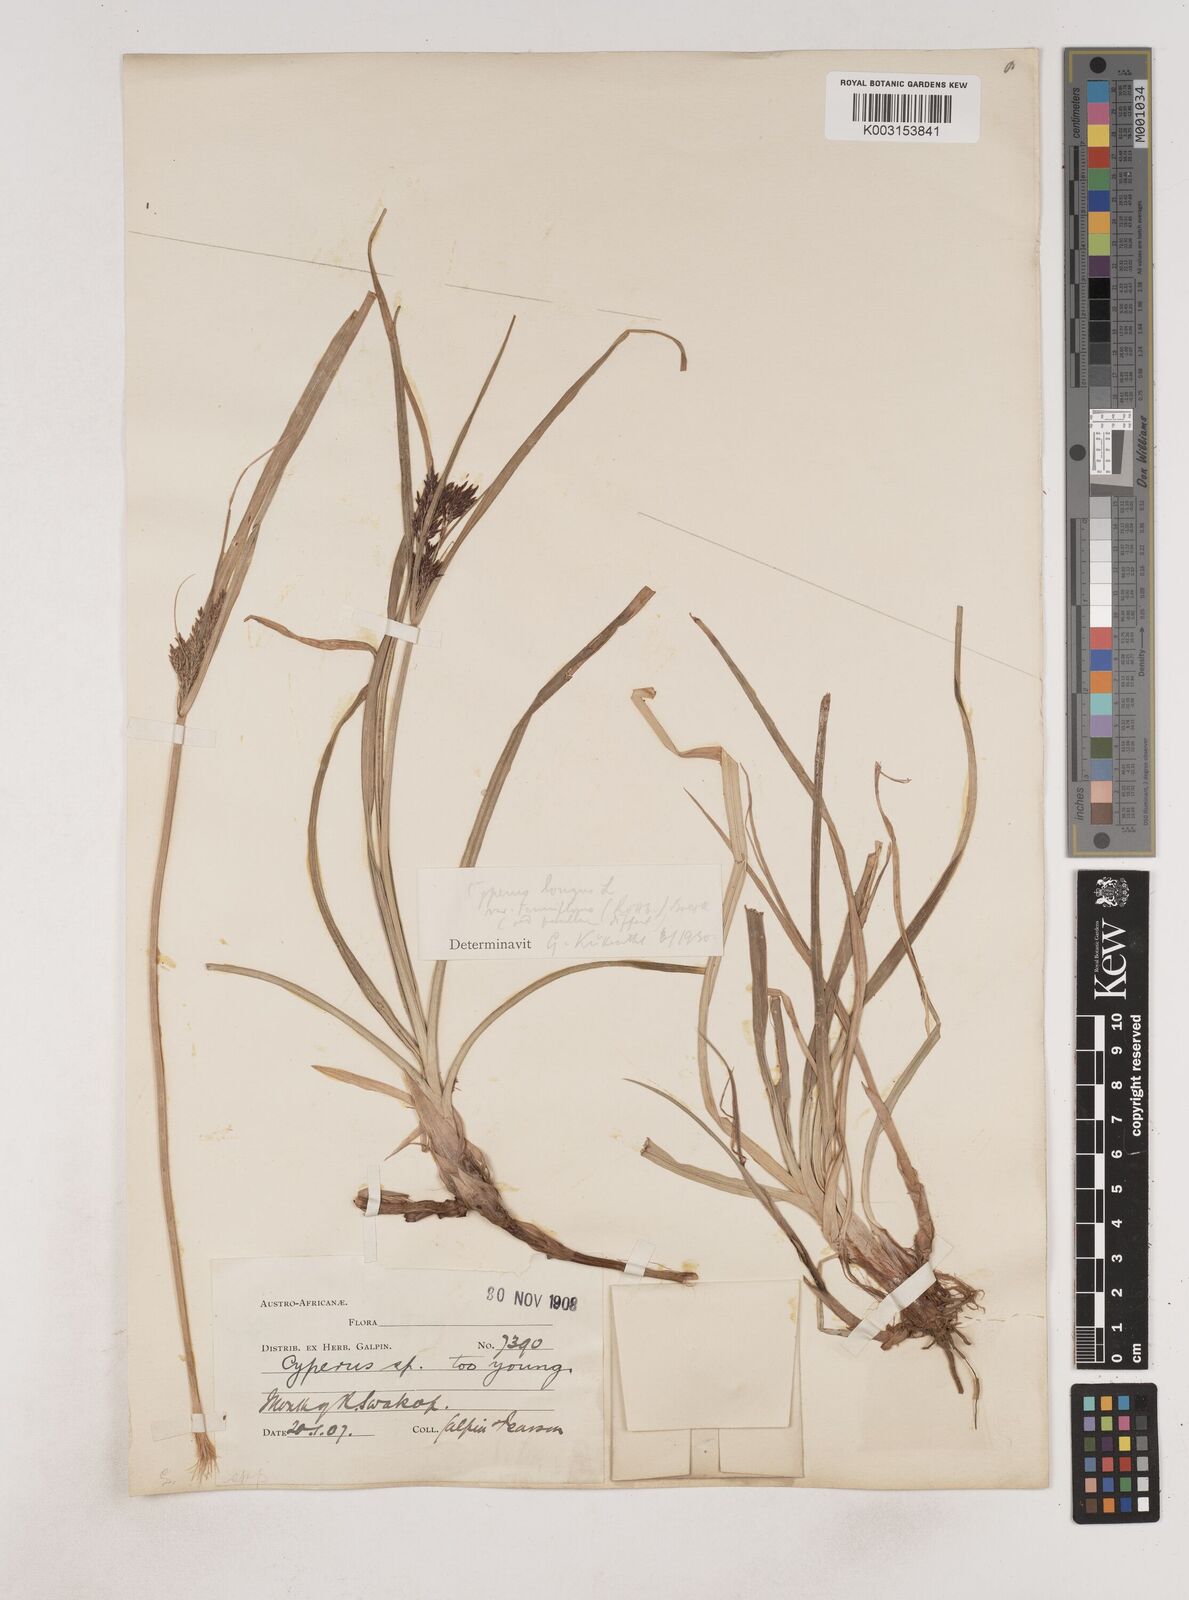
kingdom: Plantae
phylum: Tracheophyta
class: Liliopsida
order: Poales
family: Cyperaceae
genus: Cyperus
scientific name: Cyperus
